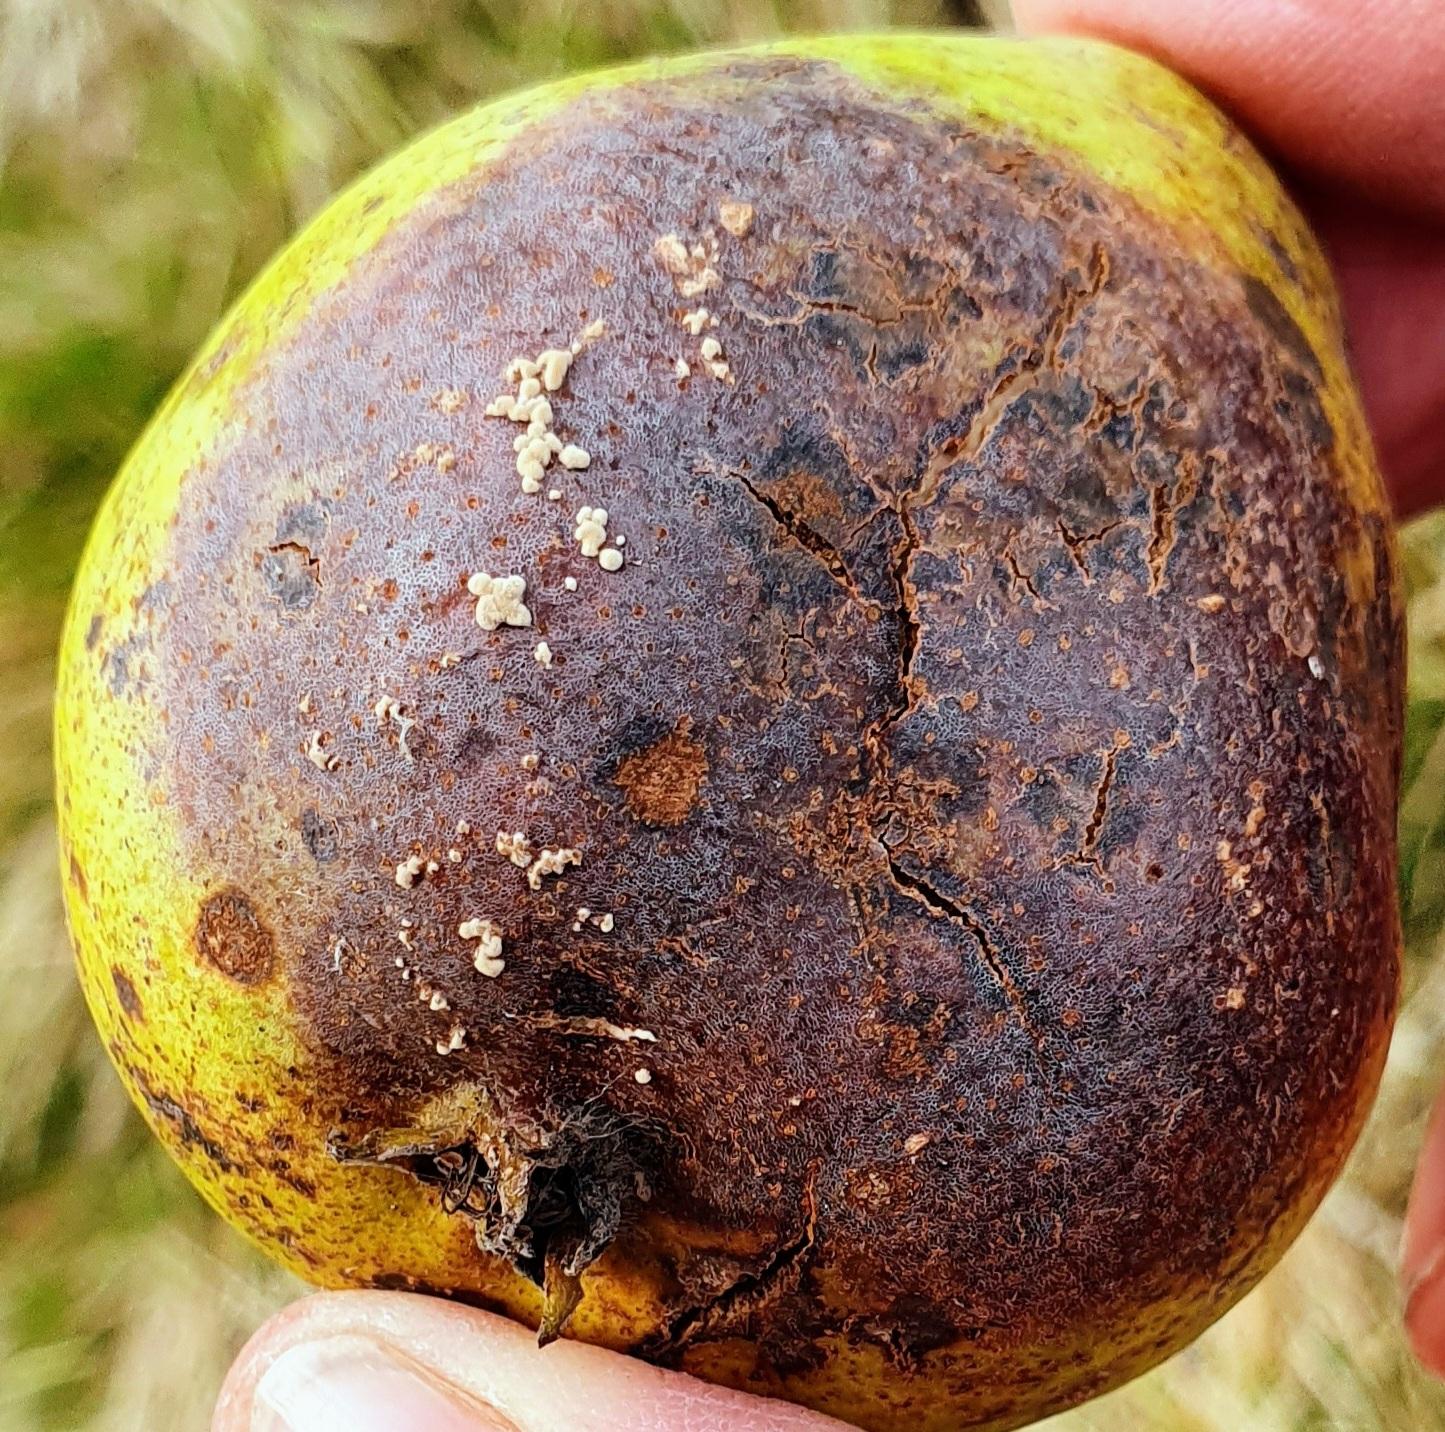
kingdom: Fungi
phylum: Ascomycota
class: Leotiomycetes
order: Helotiales
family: Sclerotiniaceae
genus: Monilia
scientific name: Monilia
